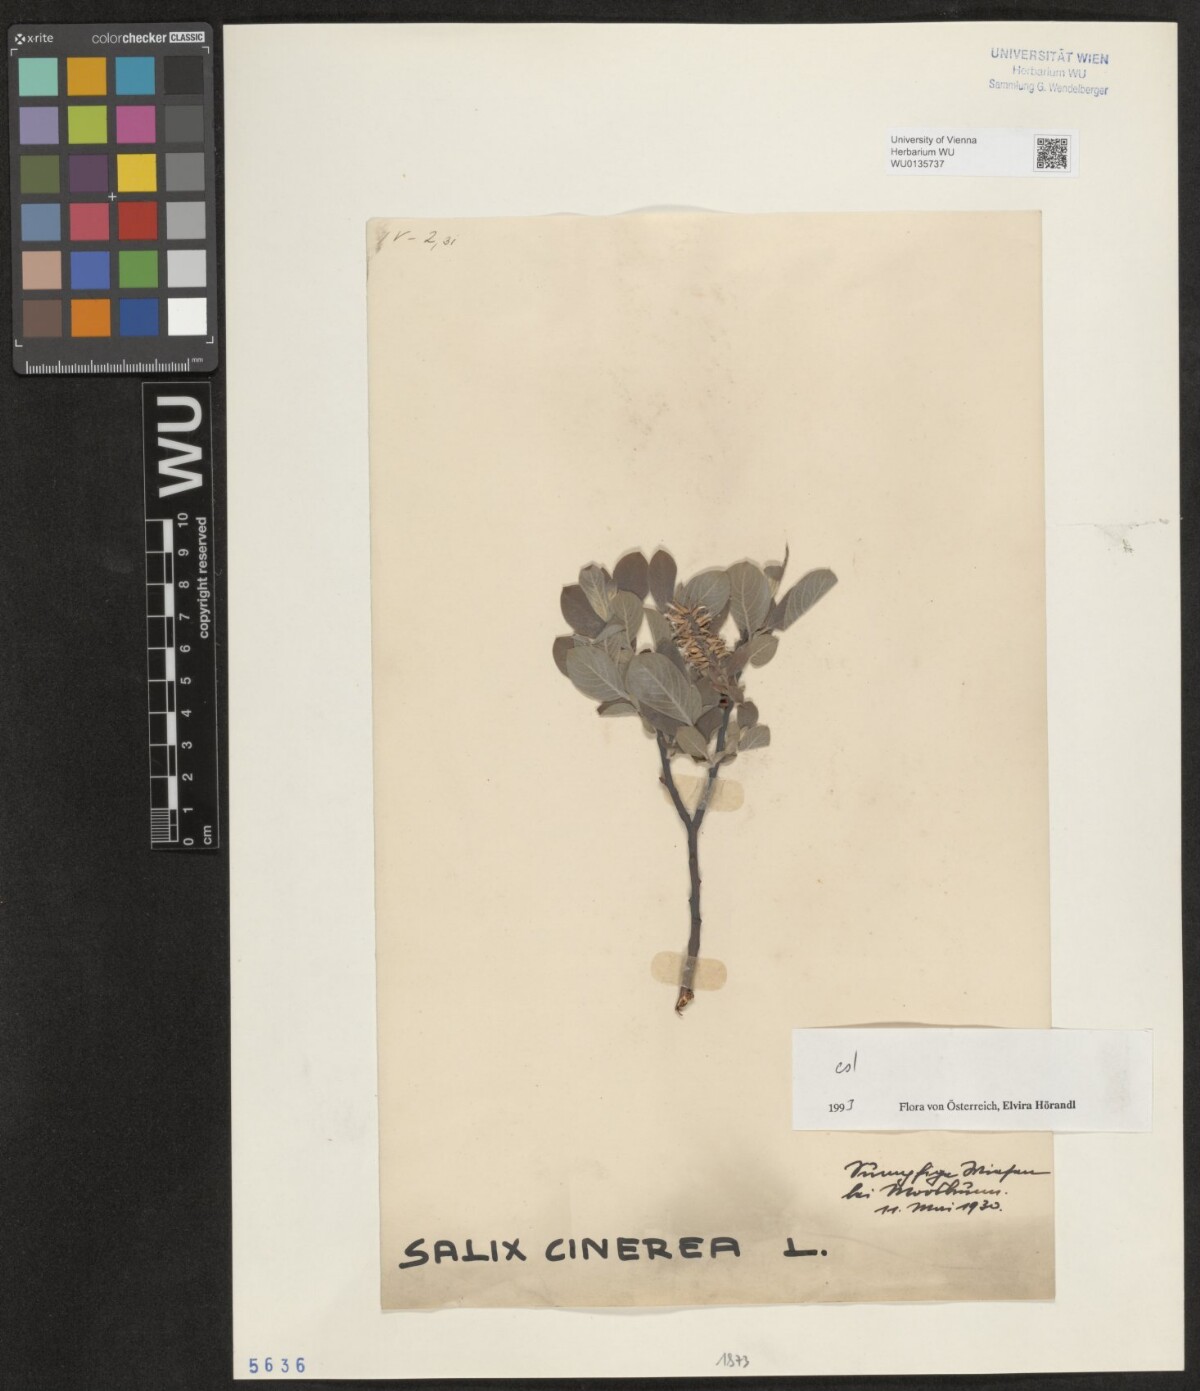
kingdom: Plantae
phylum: Tracheophyta
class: Magnoliopsida
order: Malpighiales
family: Salicaceae
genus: Salix
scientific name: Salix cinerea
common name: Common sallow
